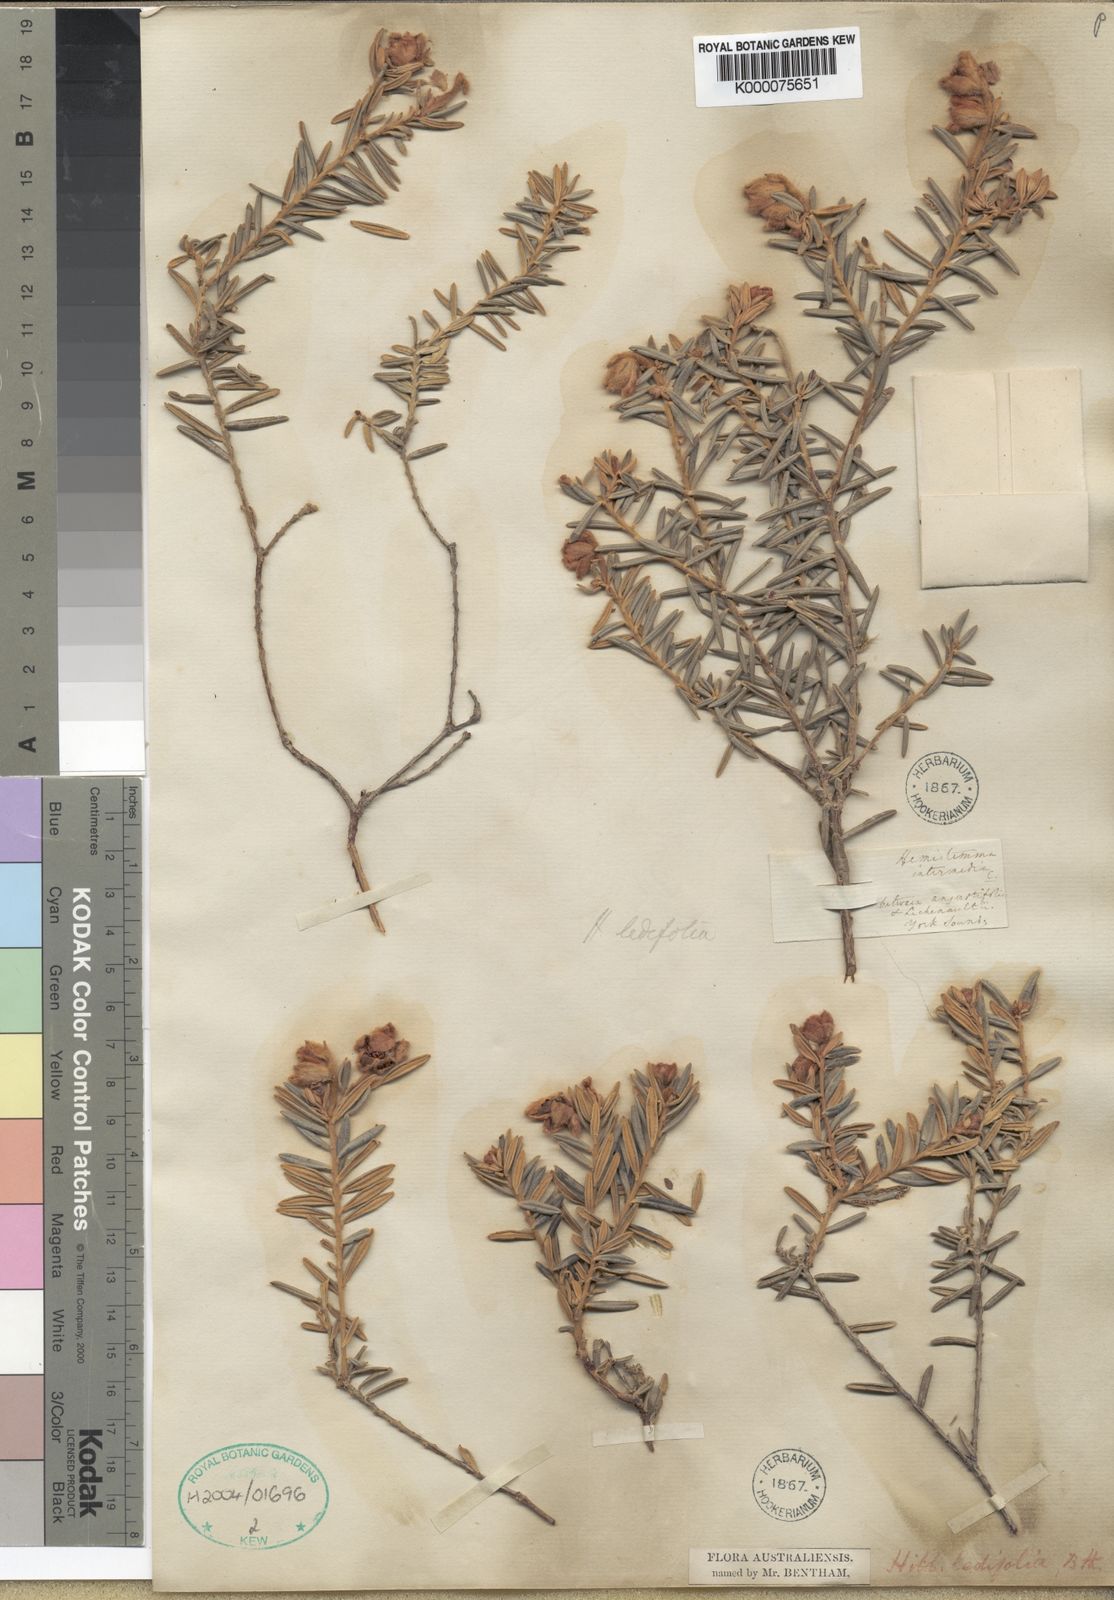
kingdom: Plantae
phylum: Tracheophyta
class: Magnoliopsida
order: Dilleniales
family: Dilleniaceae
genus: Hibbertia
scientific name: Hibbertia ledifolia
